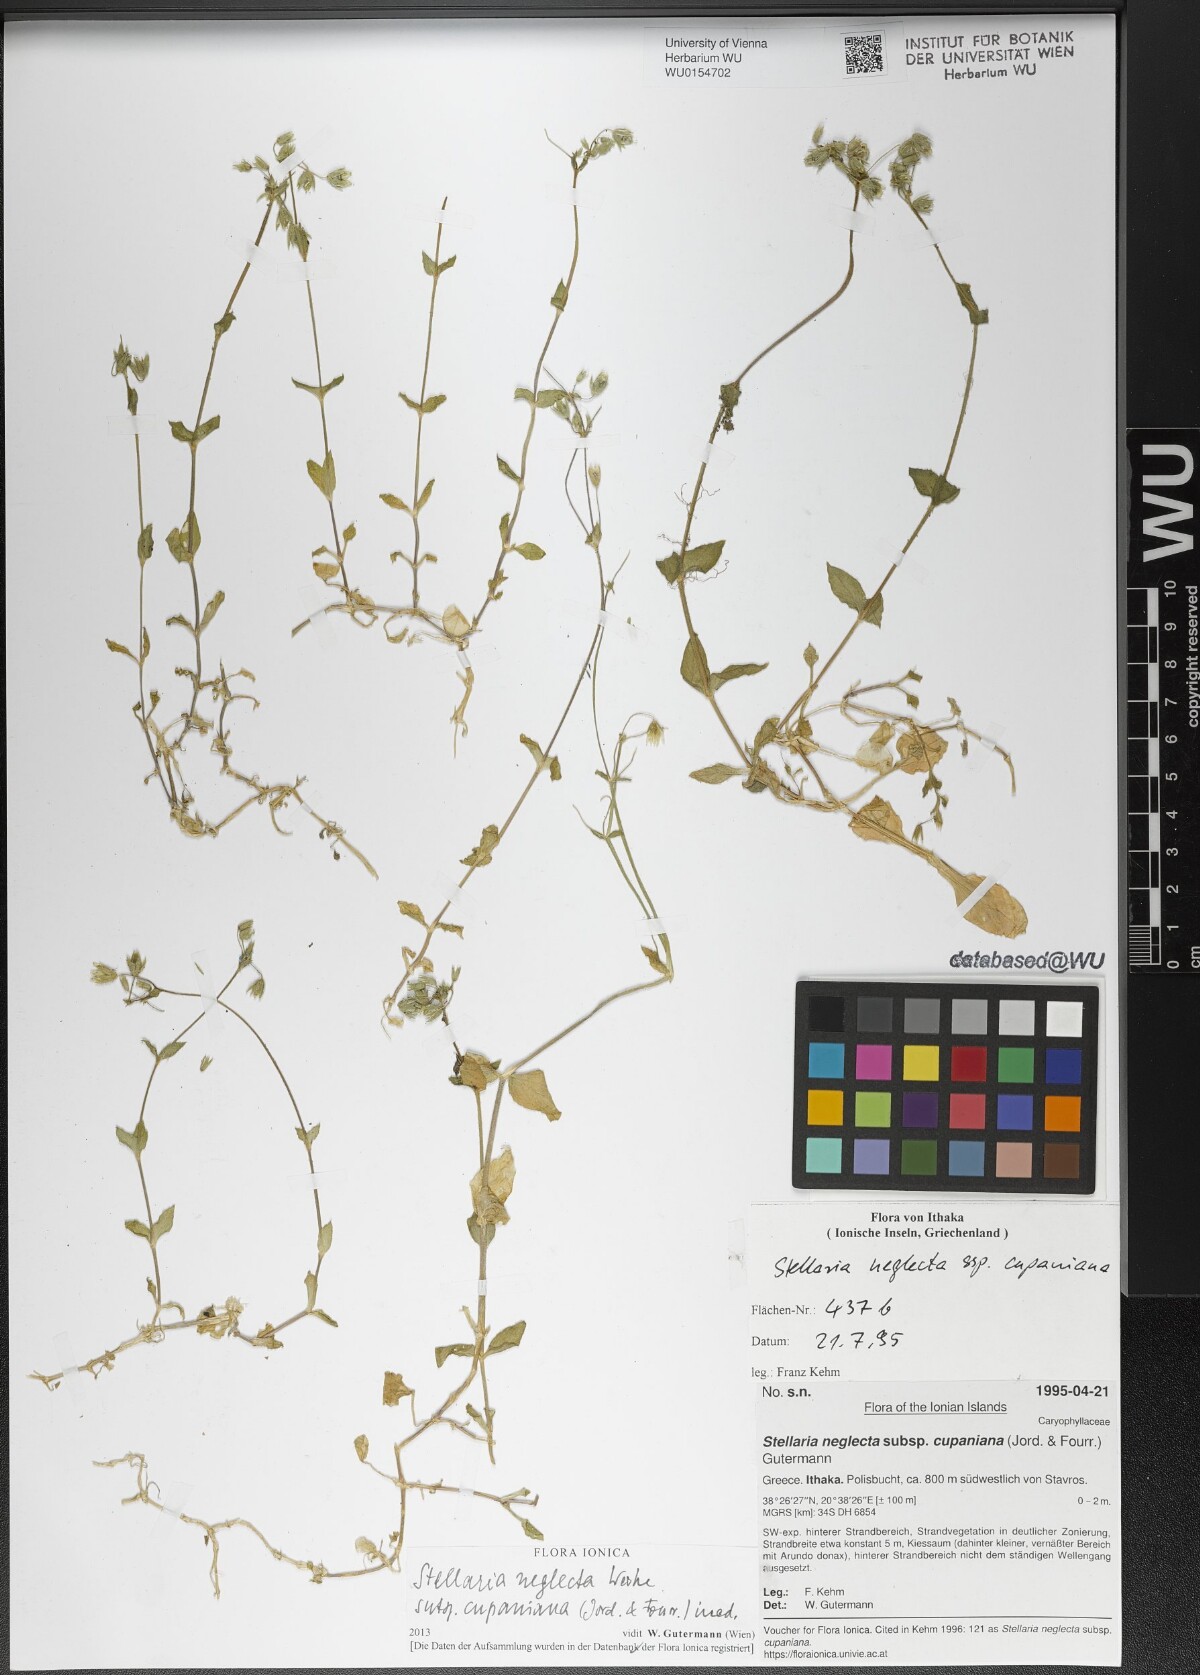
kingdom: Plantae
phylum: Tracheophyta
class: Magnoliopsida
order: Caryophyllales
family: Caryophyllaceae
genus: Stellaria
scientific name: Stellaria cupaniana
